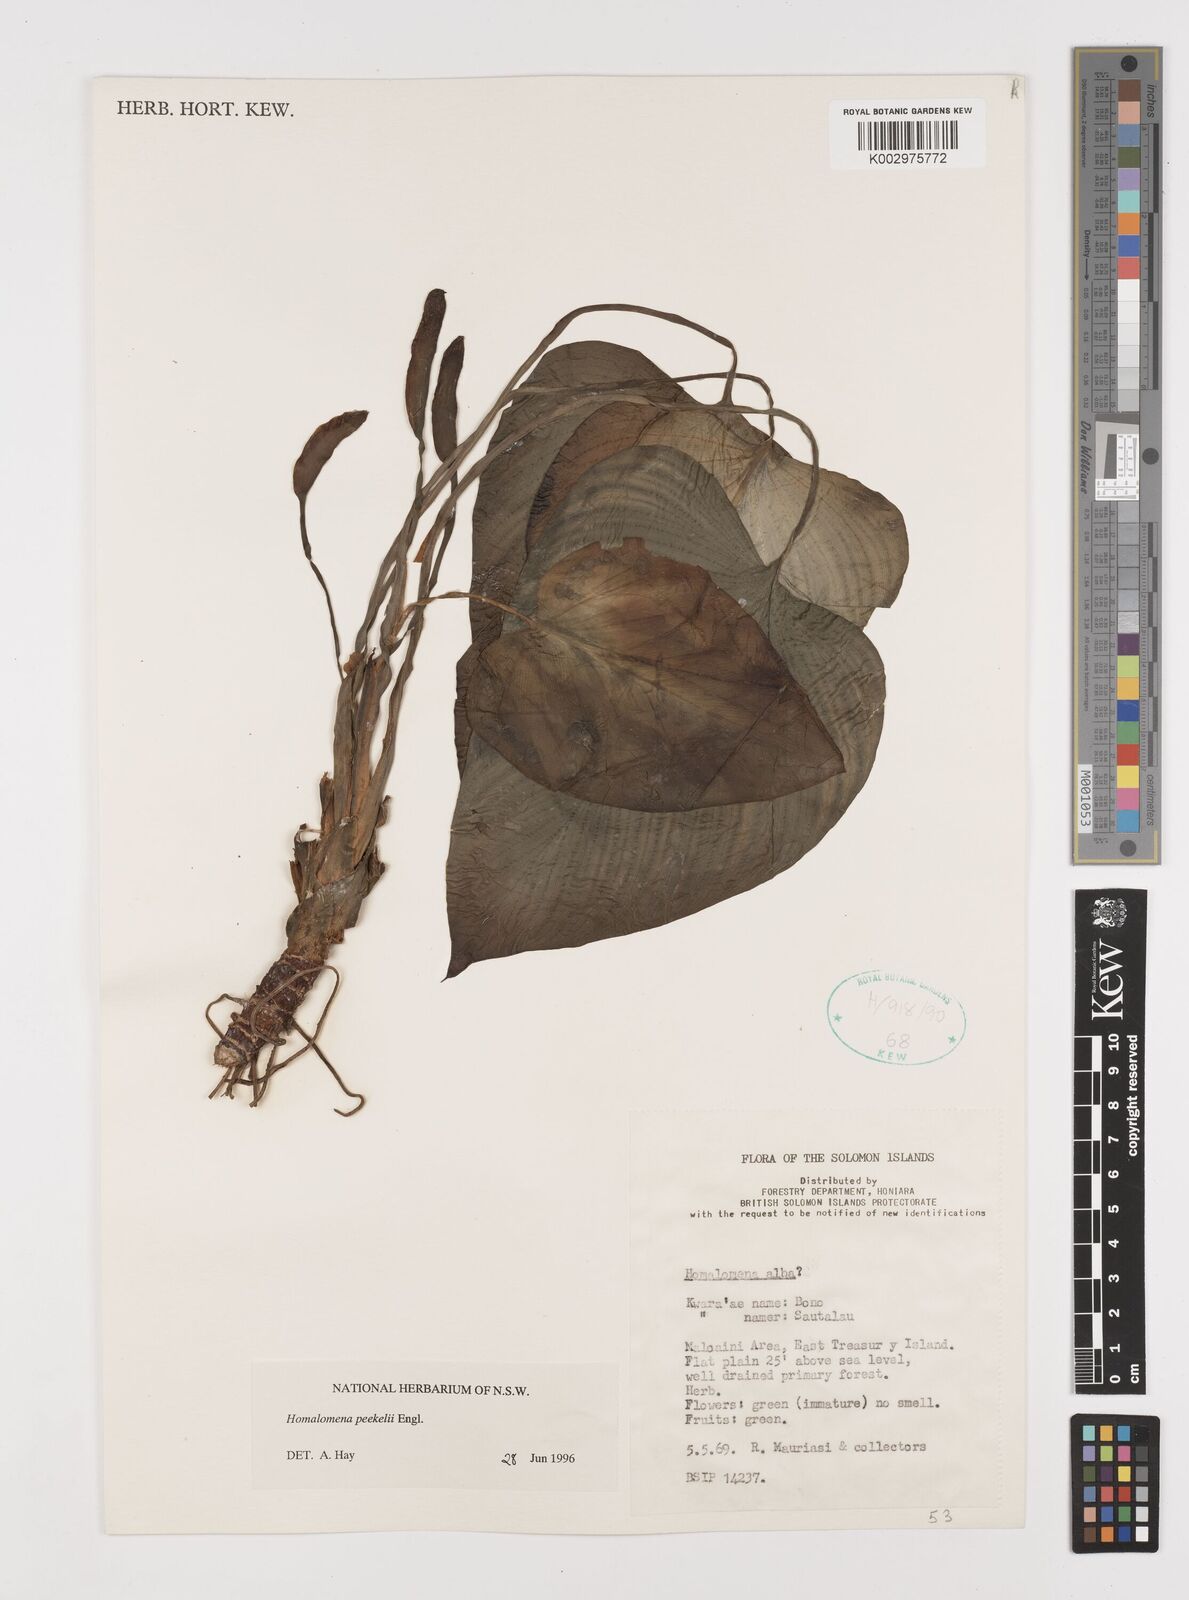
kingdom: Plantae
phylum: Tracheophyta
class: Liliopsida
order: Alismatales
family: Araceae
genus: Homalomena
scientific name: Homalomena peekelii
